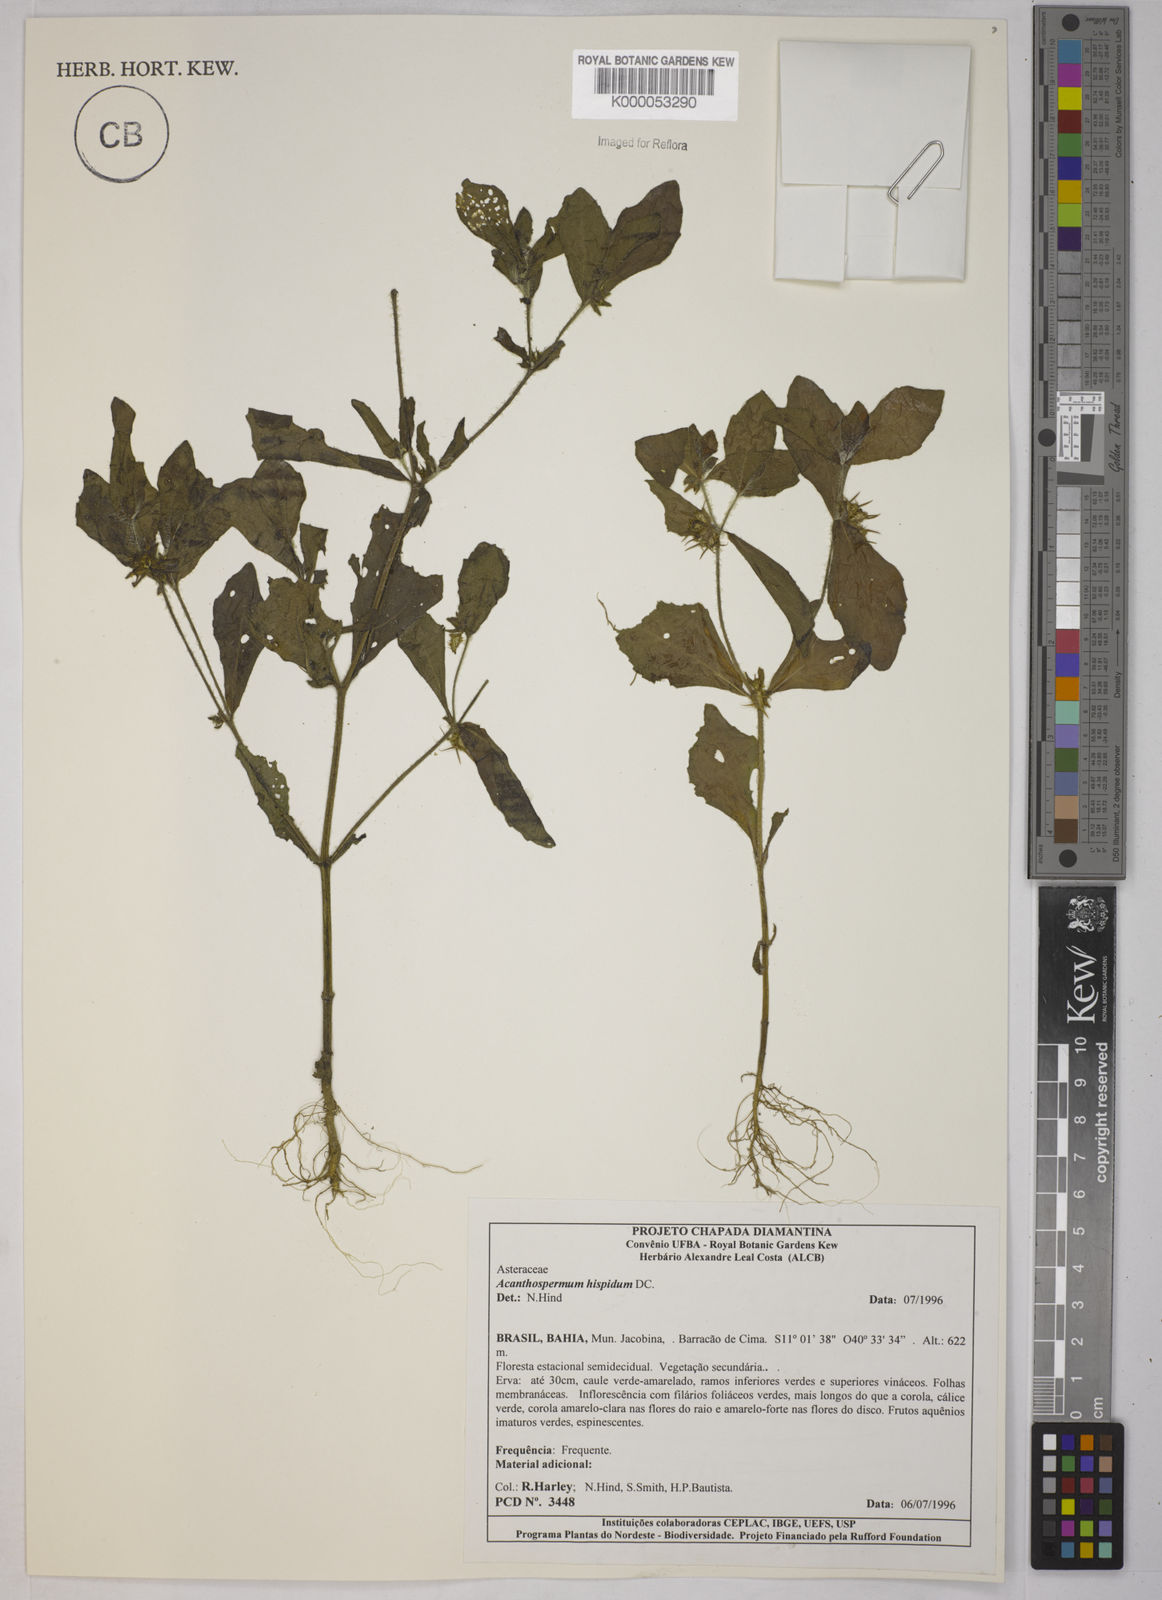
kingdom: Plantae
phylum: Tracheophyta
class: Magnoliopsida
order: Asterales
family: Asteraceae
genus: Acanthospermum
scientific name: Acanthospermum hispidum
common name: Hispid starbur
